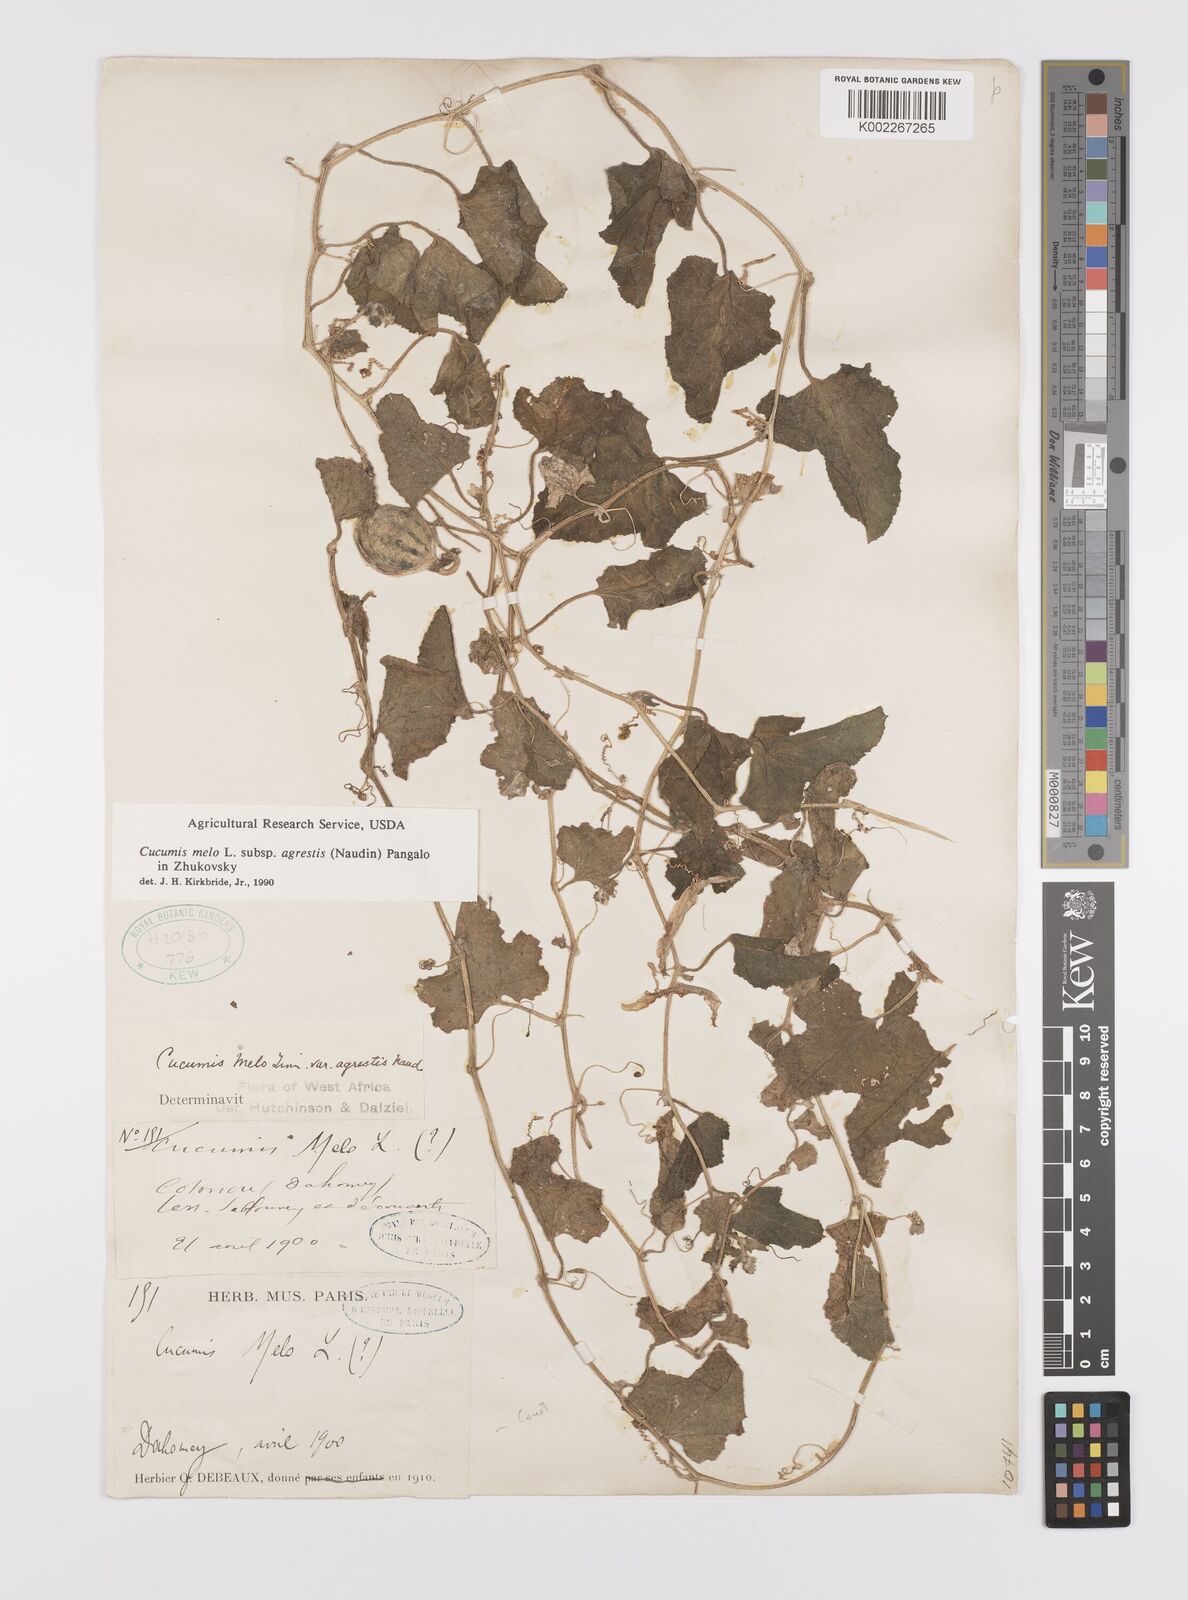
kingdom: Plantae
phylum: Tracheophyta
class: Magnoliopsida
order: Cucurbitales
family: Cucurbitaceae
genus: Cucumis
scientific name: Cucumis melo
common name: Melon
